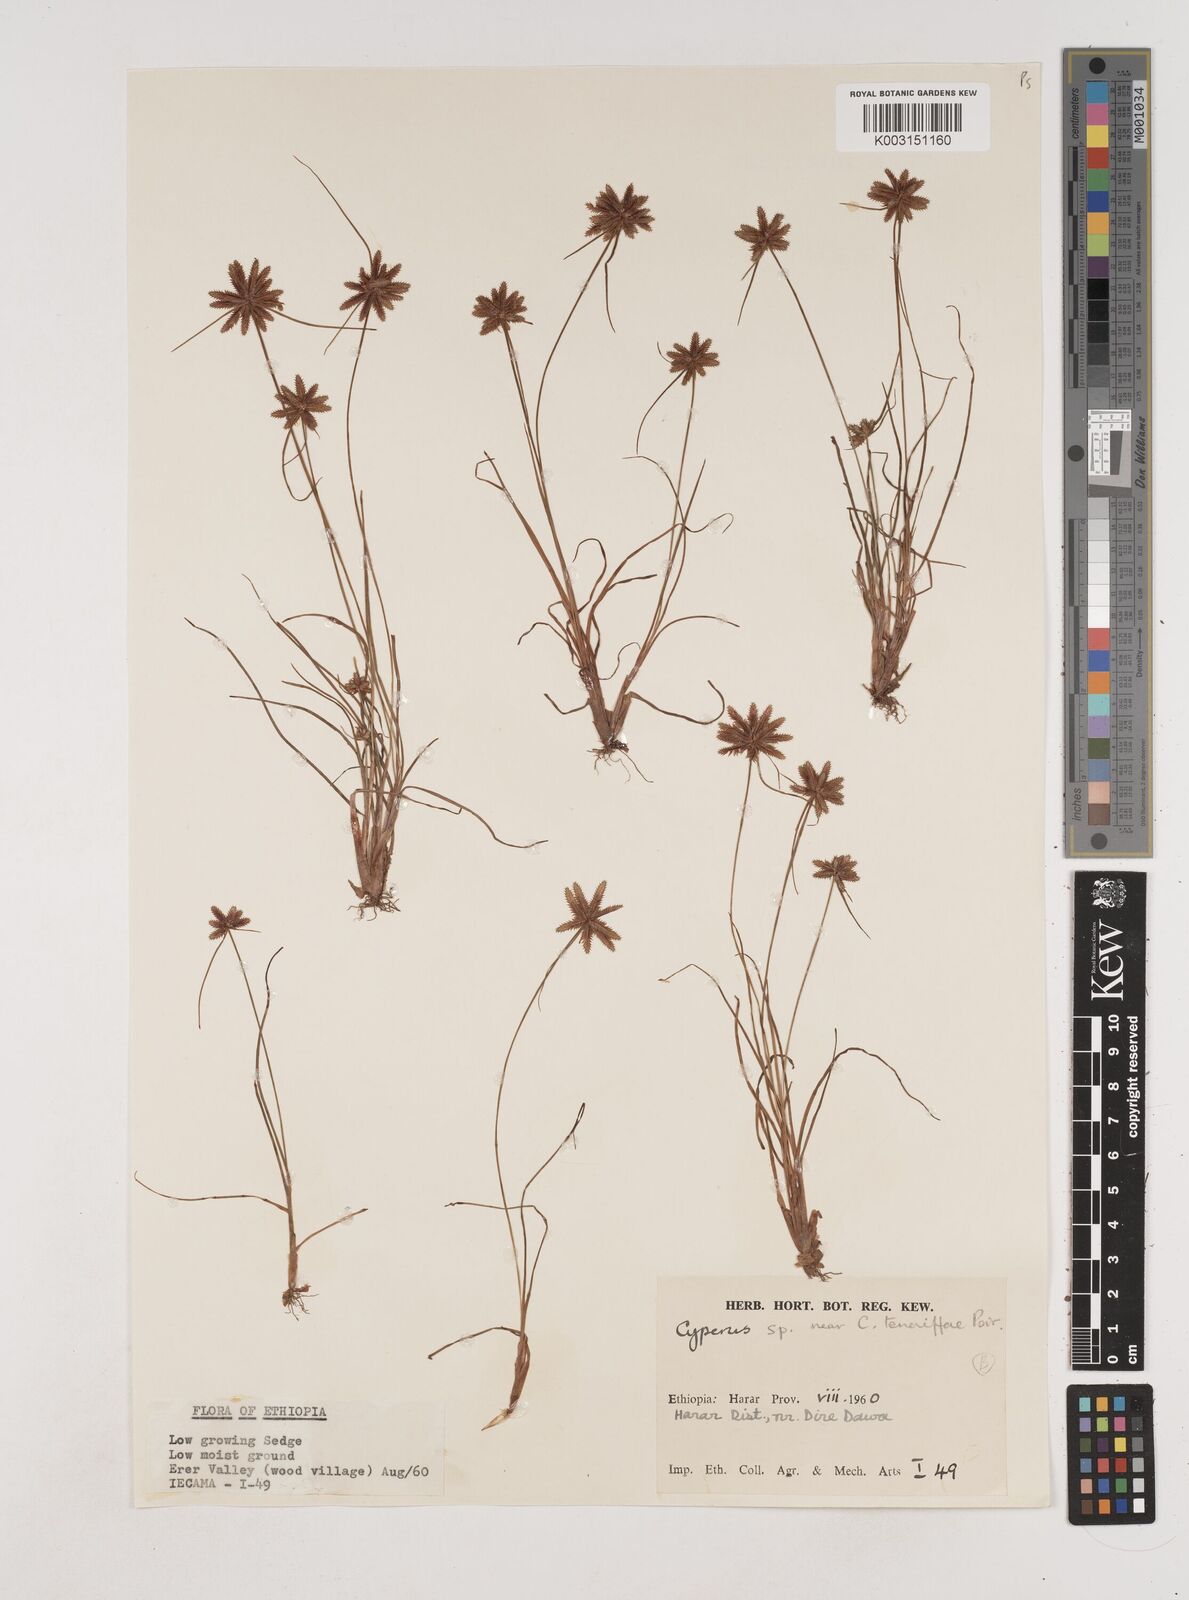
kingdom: Plantae
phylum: Tracheophyta
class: Liliopsida
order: Poales
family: Cyperaceae
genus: Cyperus
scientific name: Cyperus rubicundus
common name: Coco-grass
